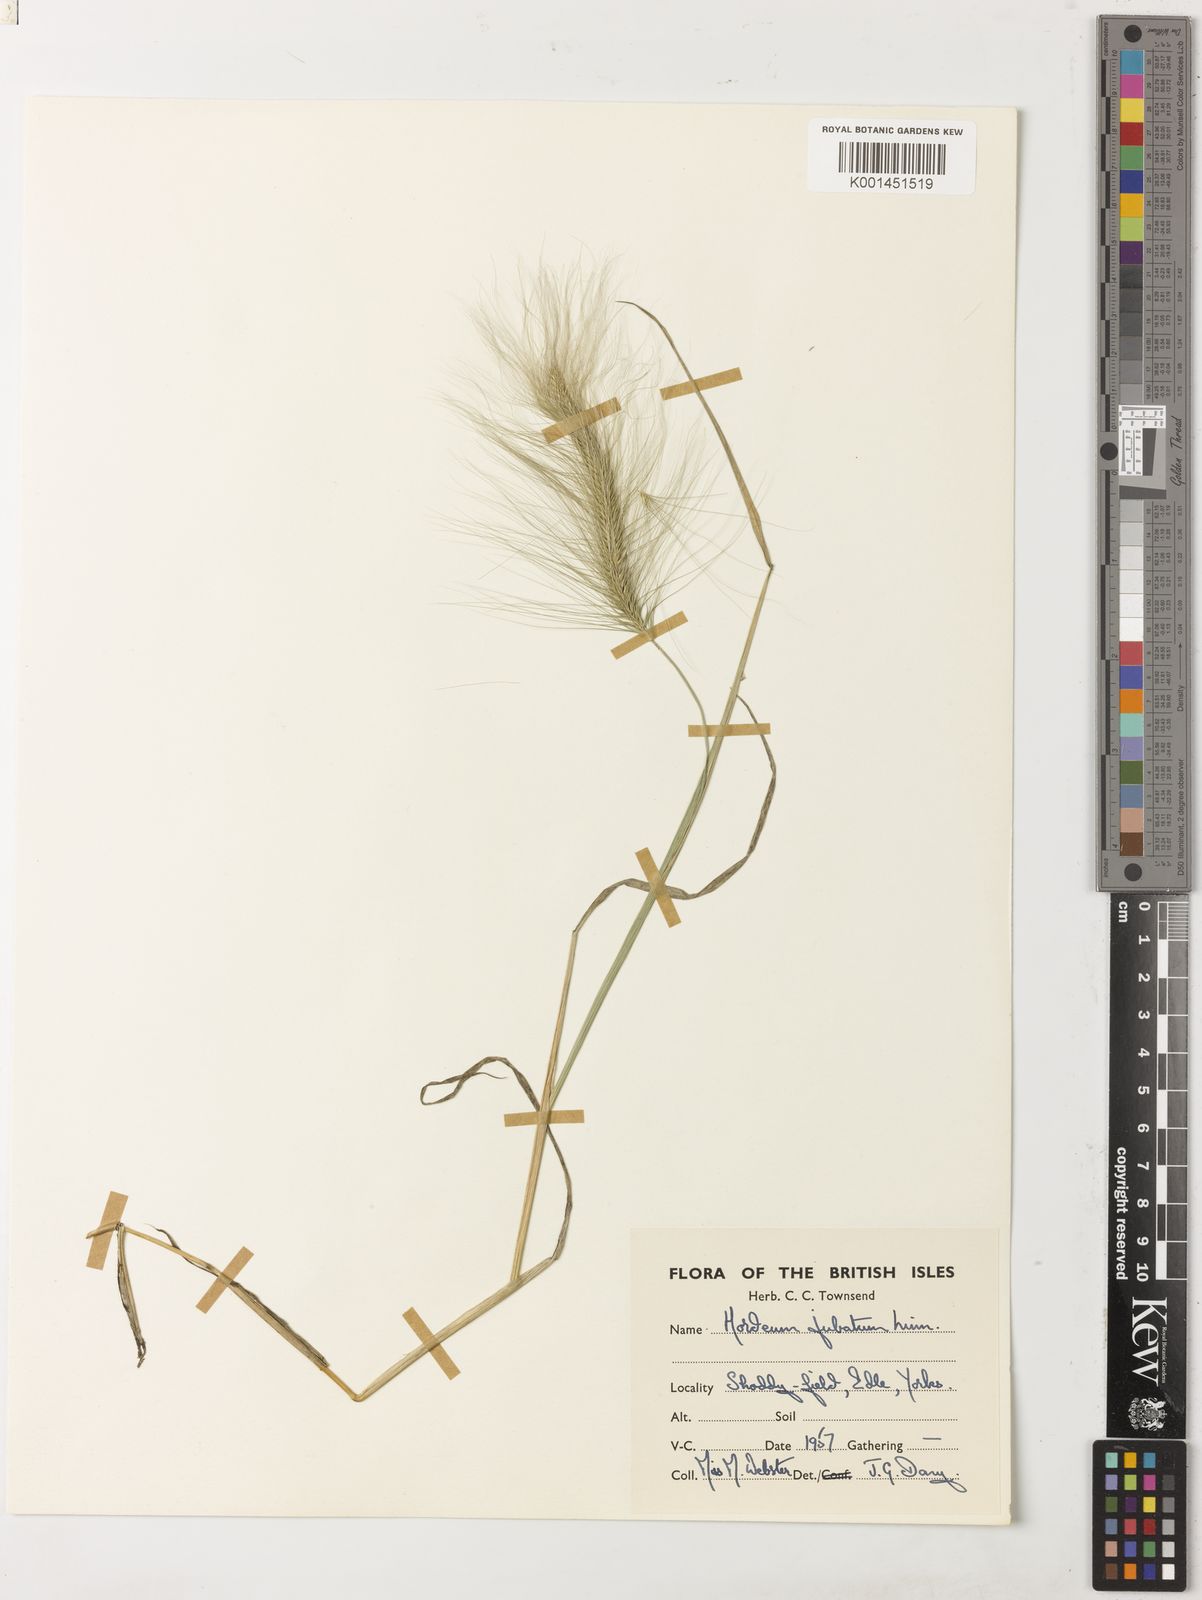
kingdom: Plantae
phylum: Tracheophyta
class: Liliopsida
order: Poales
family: Poaceae
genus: Hordeum
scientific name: Hordeum jubatum
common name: Foxtail barley
